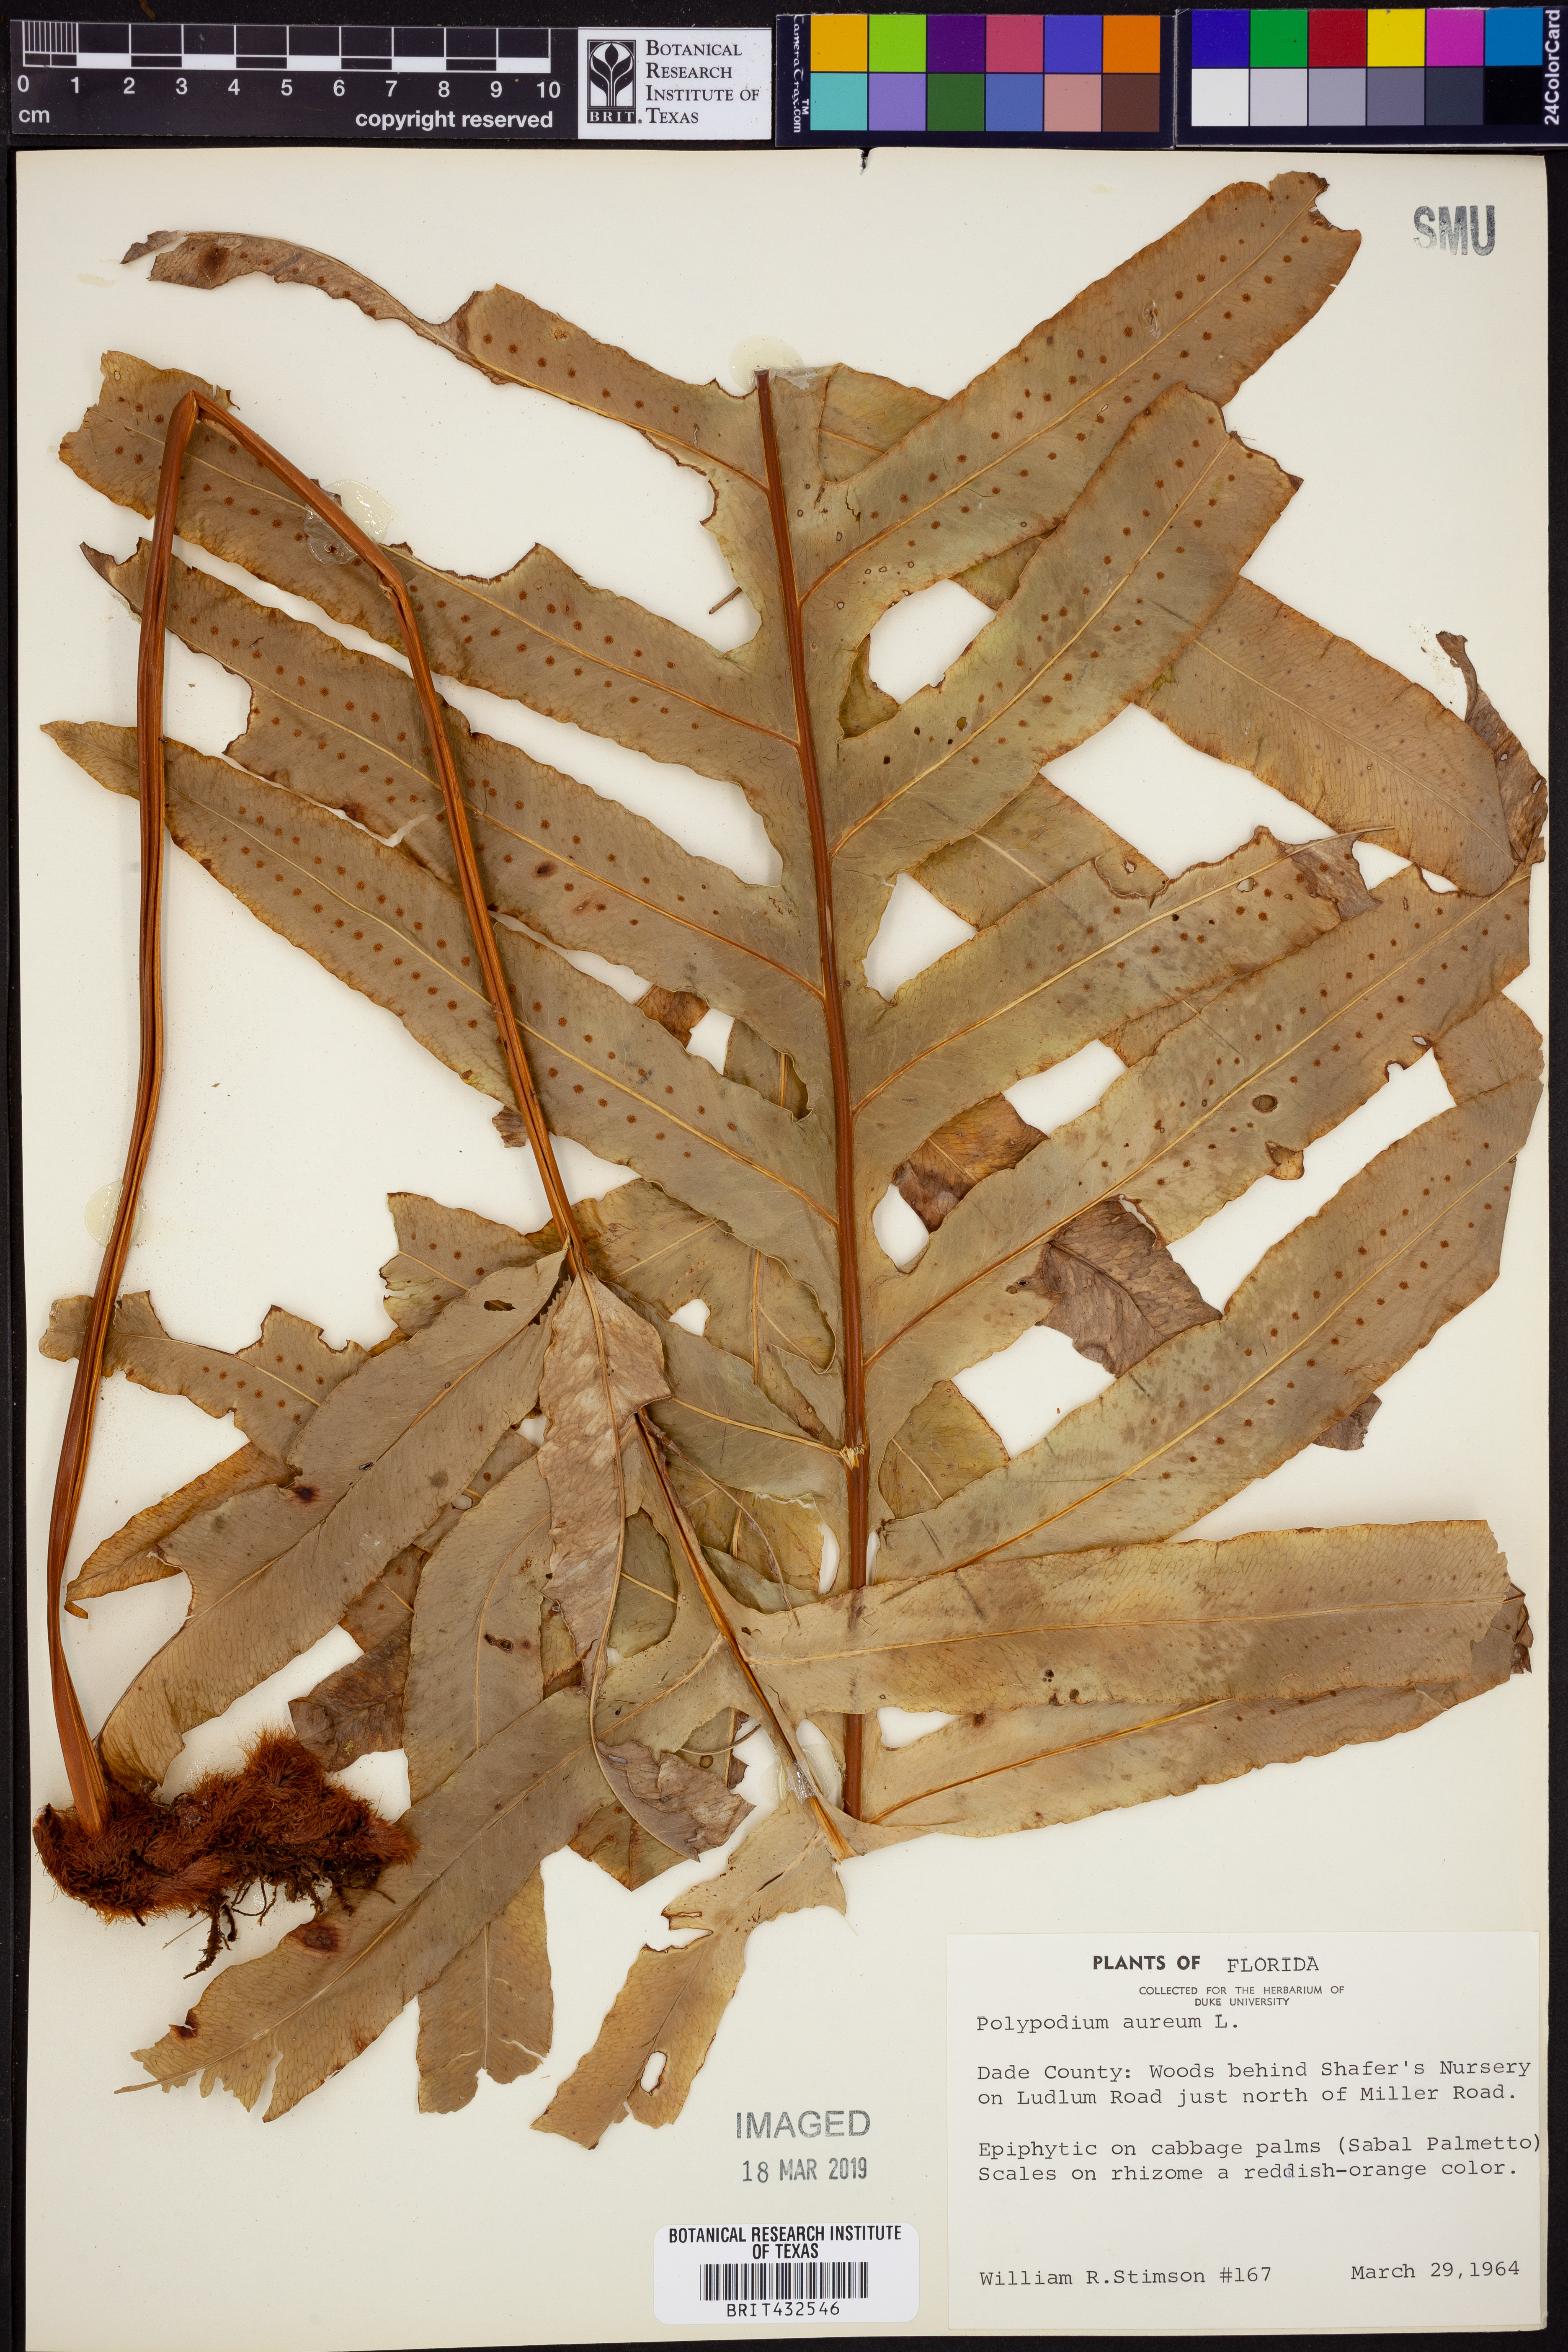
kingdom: Plantae
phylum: Tracheophyta
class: Polypodiopsida
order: Polypodiales
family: Polypodiaceae
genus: Phlebodium
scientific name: Phlebodium aureum
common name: Gold-foot fern
